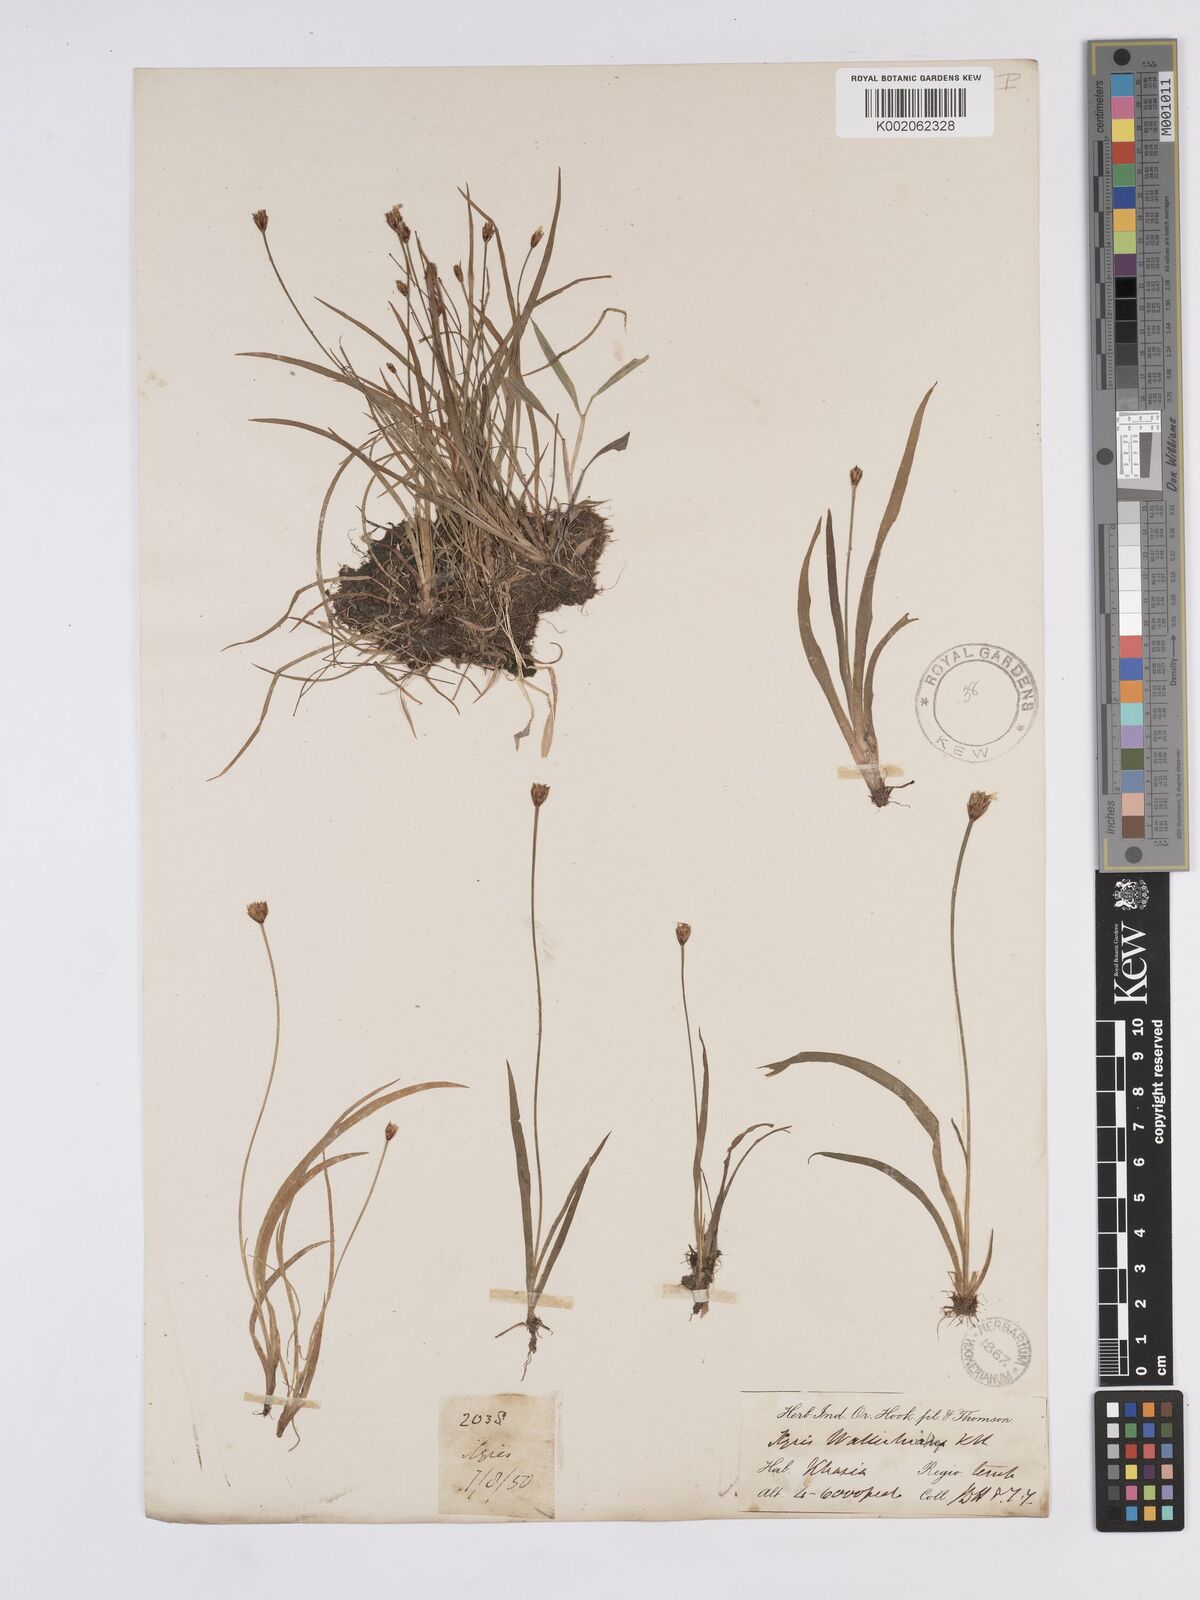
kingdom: Plantae
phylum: Tracheophyta
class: Liliopsida
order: Poales
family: Xyridaceae
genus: Xyris
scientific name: Xyris wallichii
